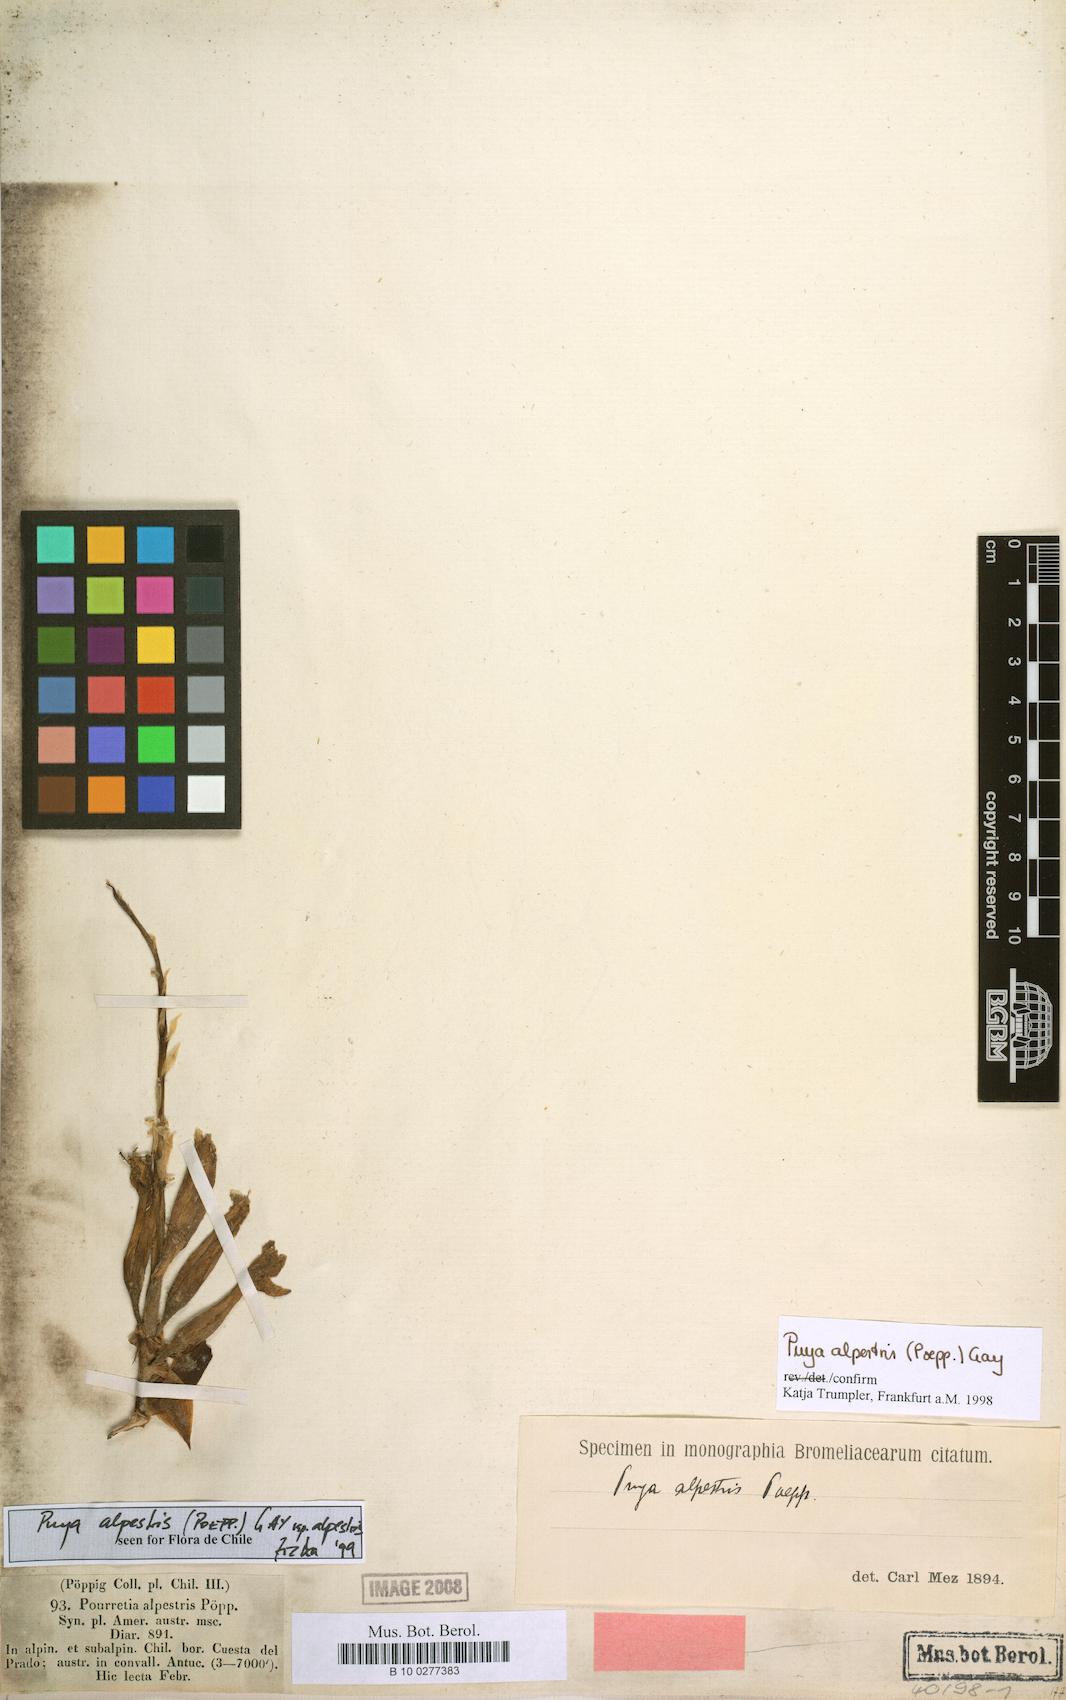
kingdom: Plantae
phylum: Tracheophyta
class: Liliopsida
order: Poales
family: Bromeliaceae
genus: Puya
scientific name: Puya alpestris
